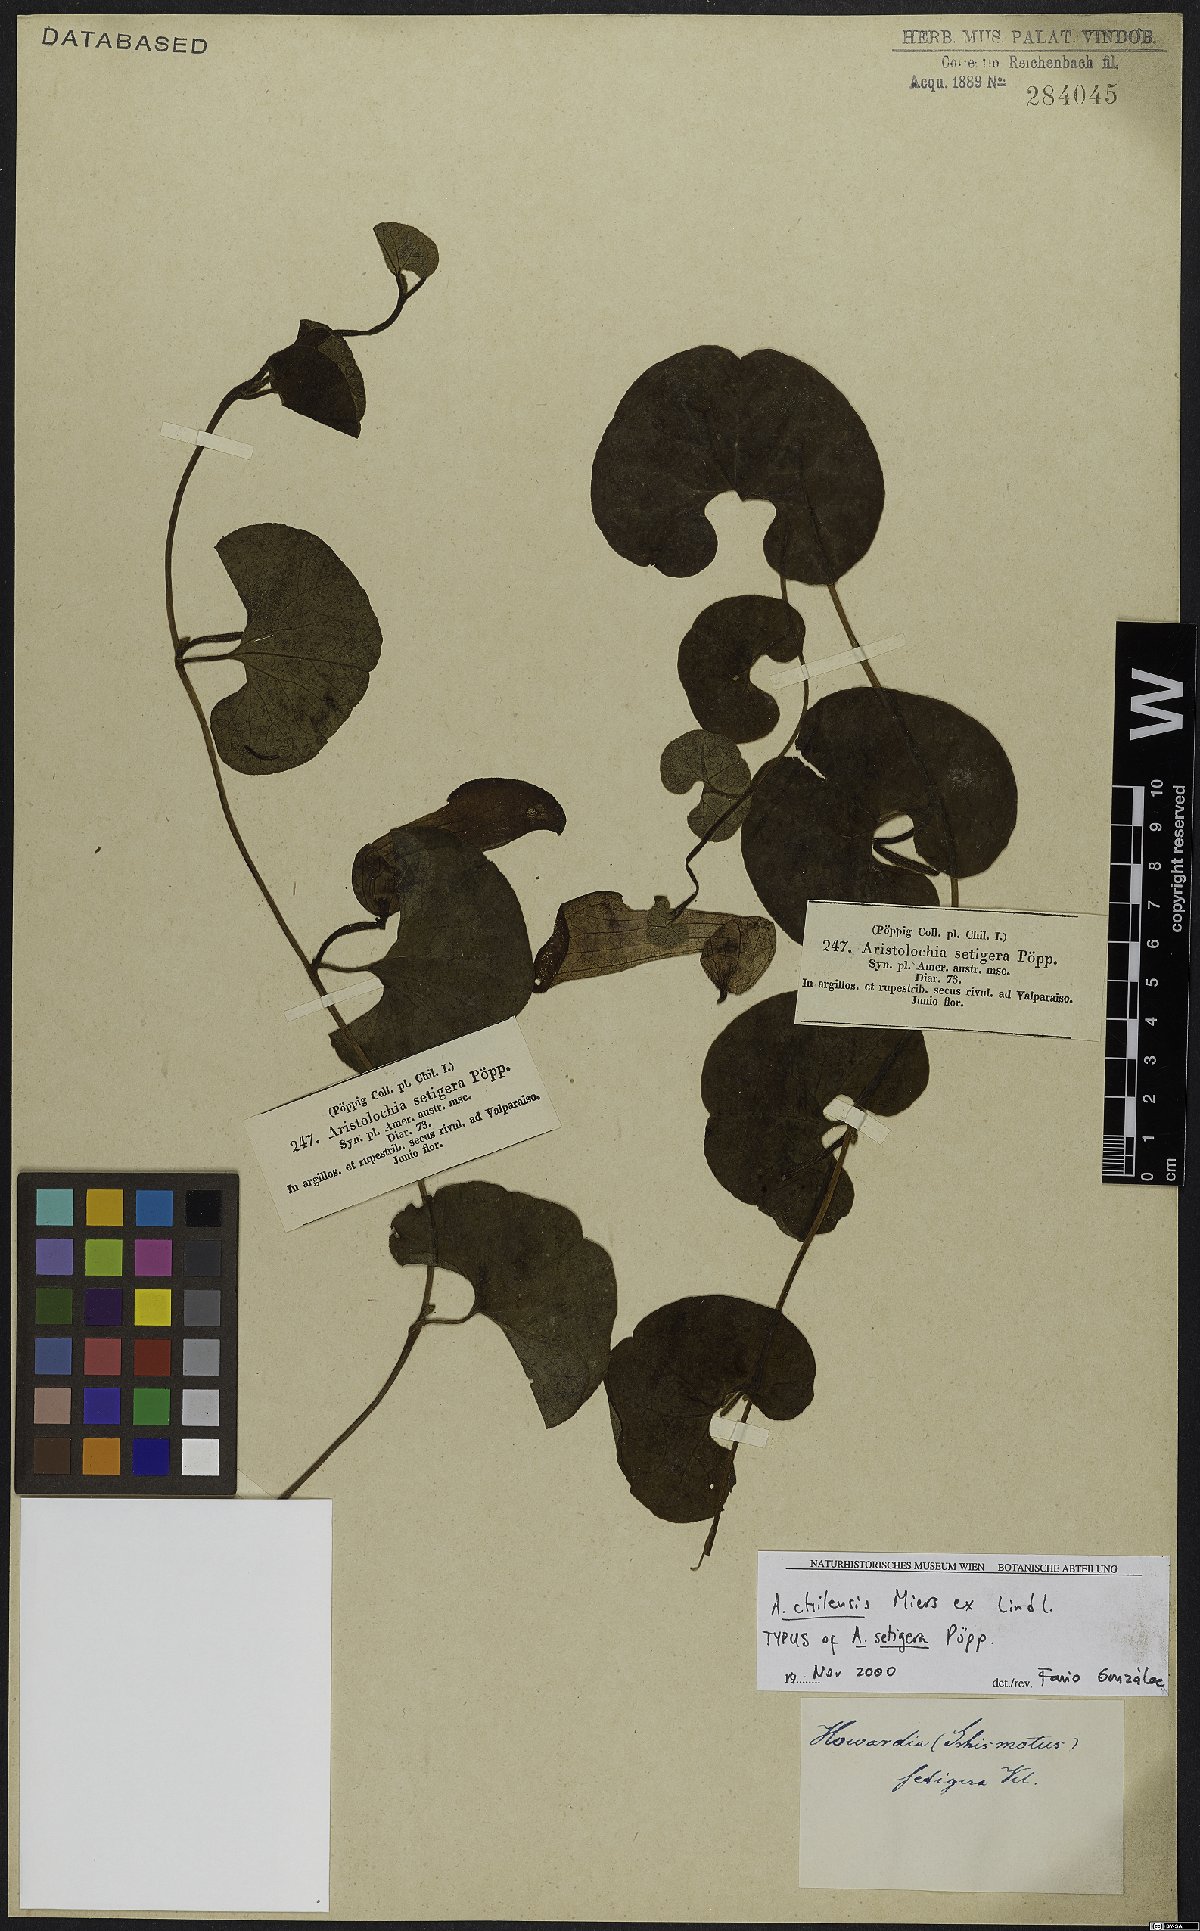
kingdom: Plantae
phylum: Tracheophyta
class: Magnoliopsida
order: Piperales
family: Aristolochiaceae
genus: Aristolochia
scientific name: Aristolochia chilensis
